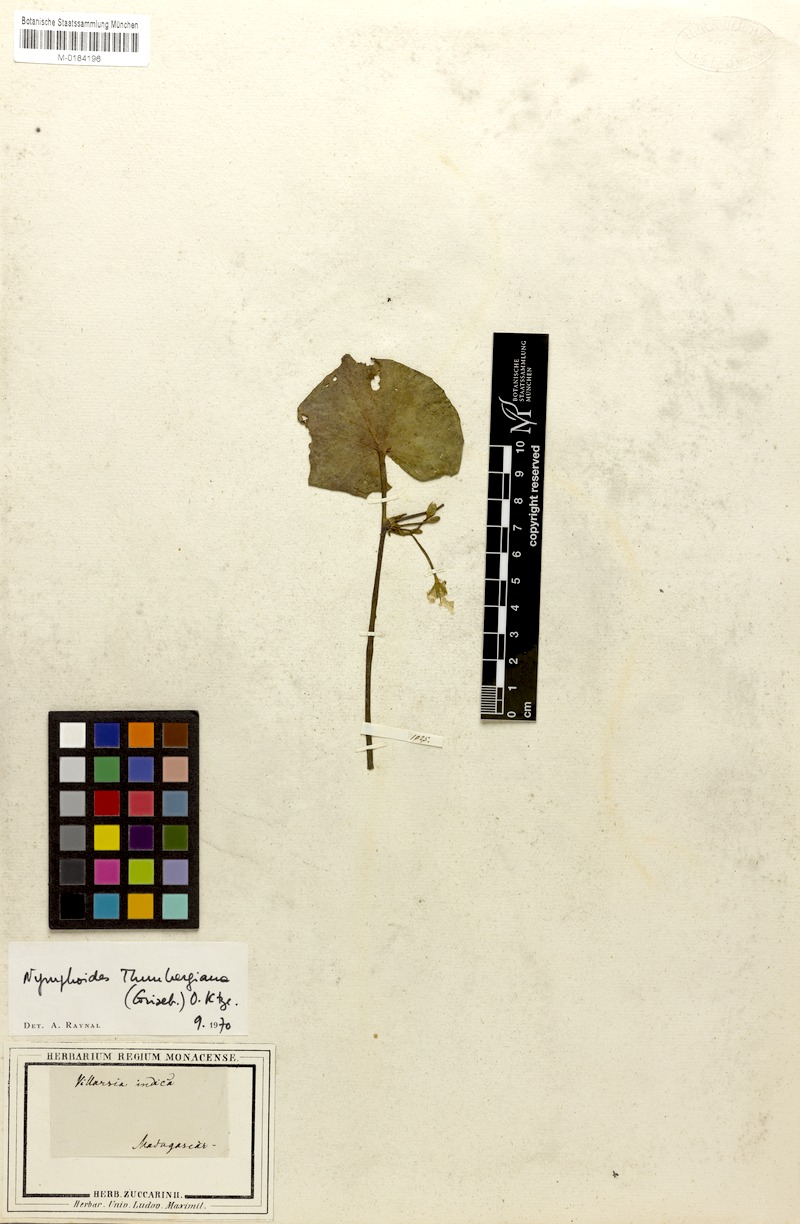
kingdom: Plantae
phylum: Tracheophyta
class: Magnoliopsida
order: Asterales
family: Menyanthaceae
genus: Nymphoides
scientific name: Nymphoides indica
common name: Water-snowflake
